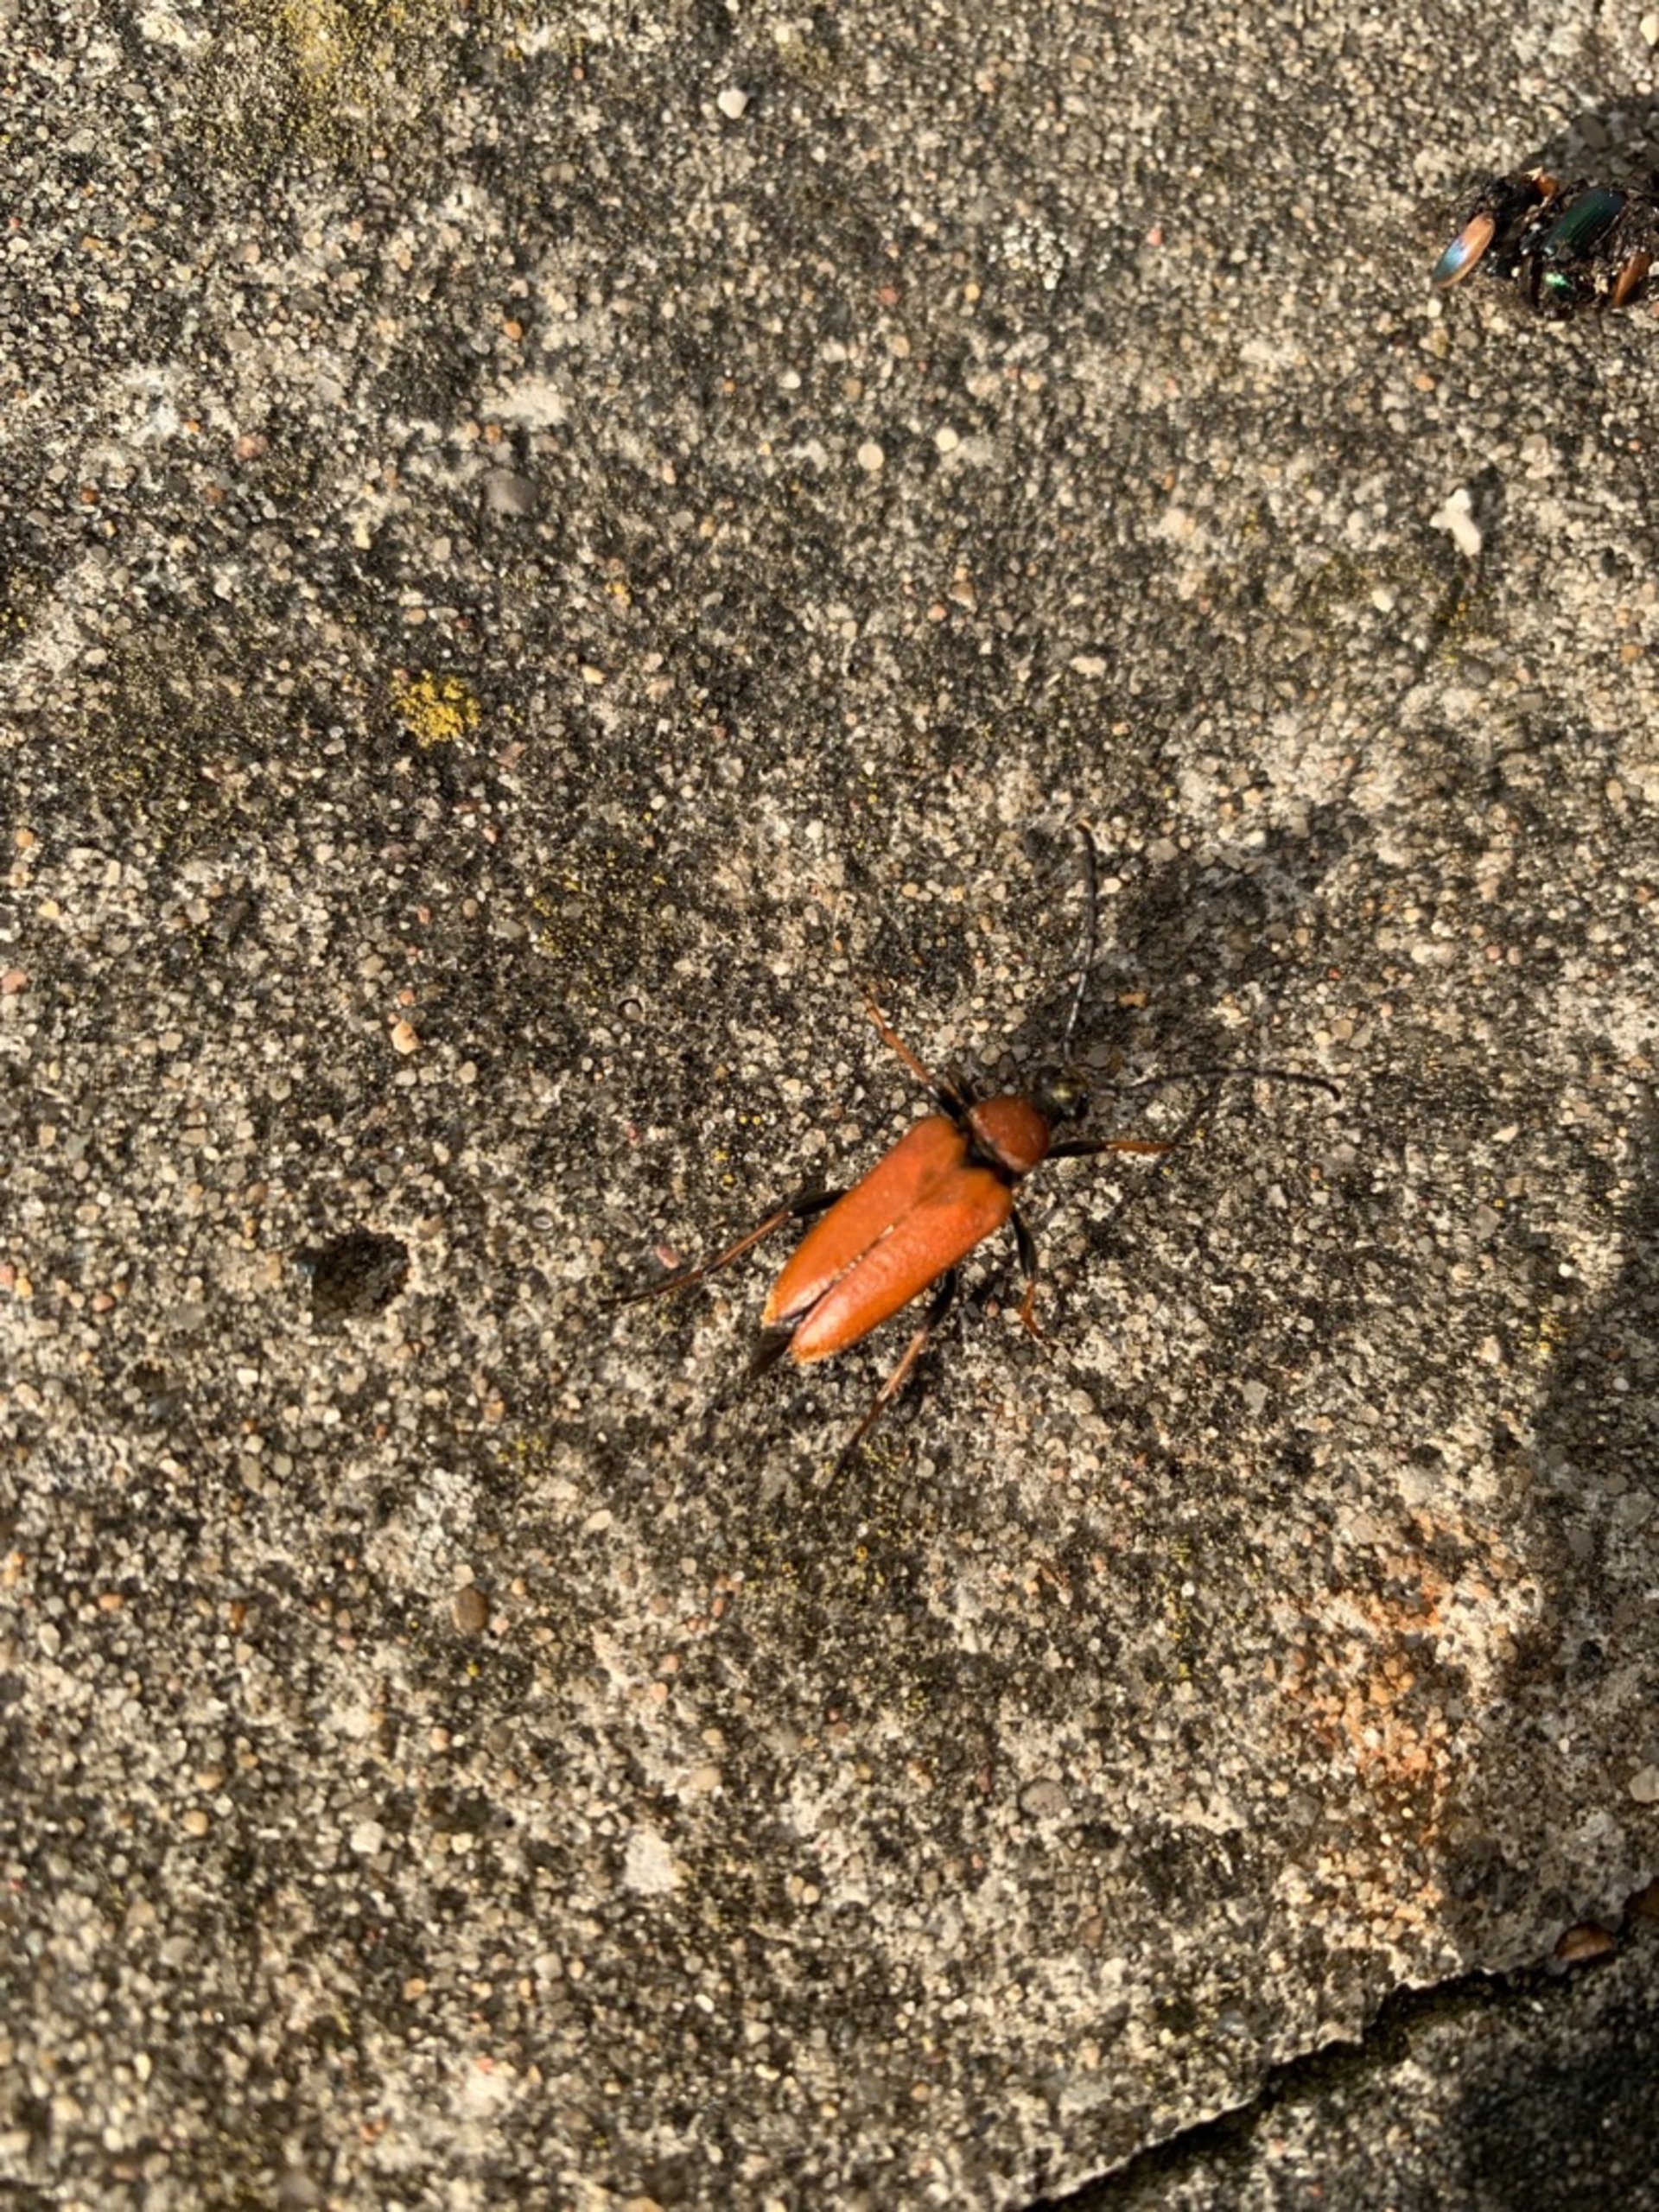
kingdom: Animalia
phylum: Arthropoda
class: Insecta
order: Coleoptera
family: Cerambycidae
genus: Stictoleptura
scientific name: Stictoleptura rubra
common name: Rød blomsterbuk
